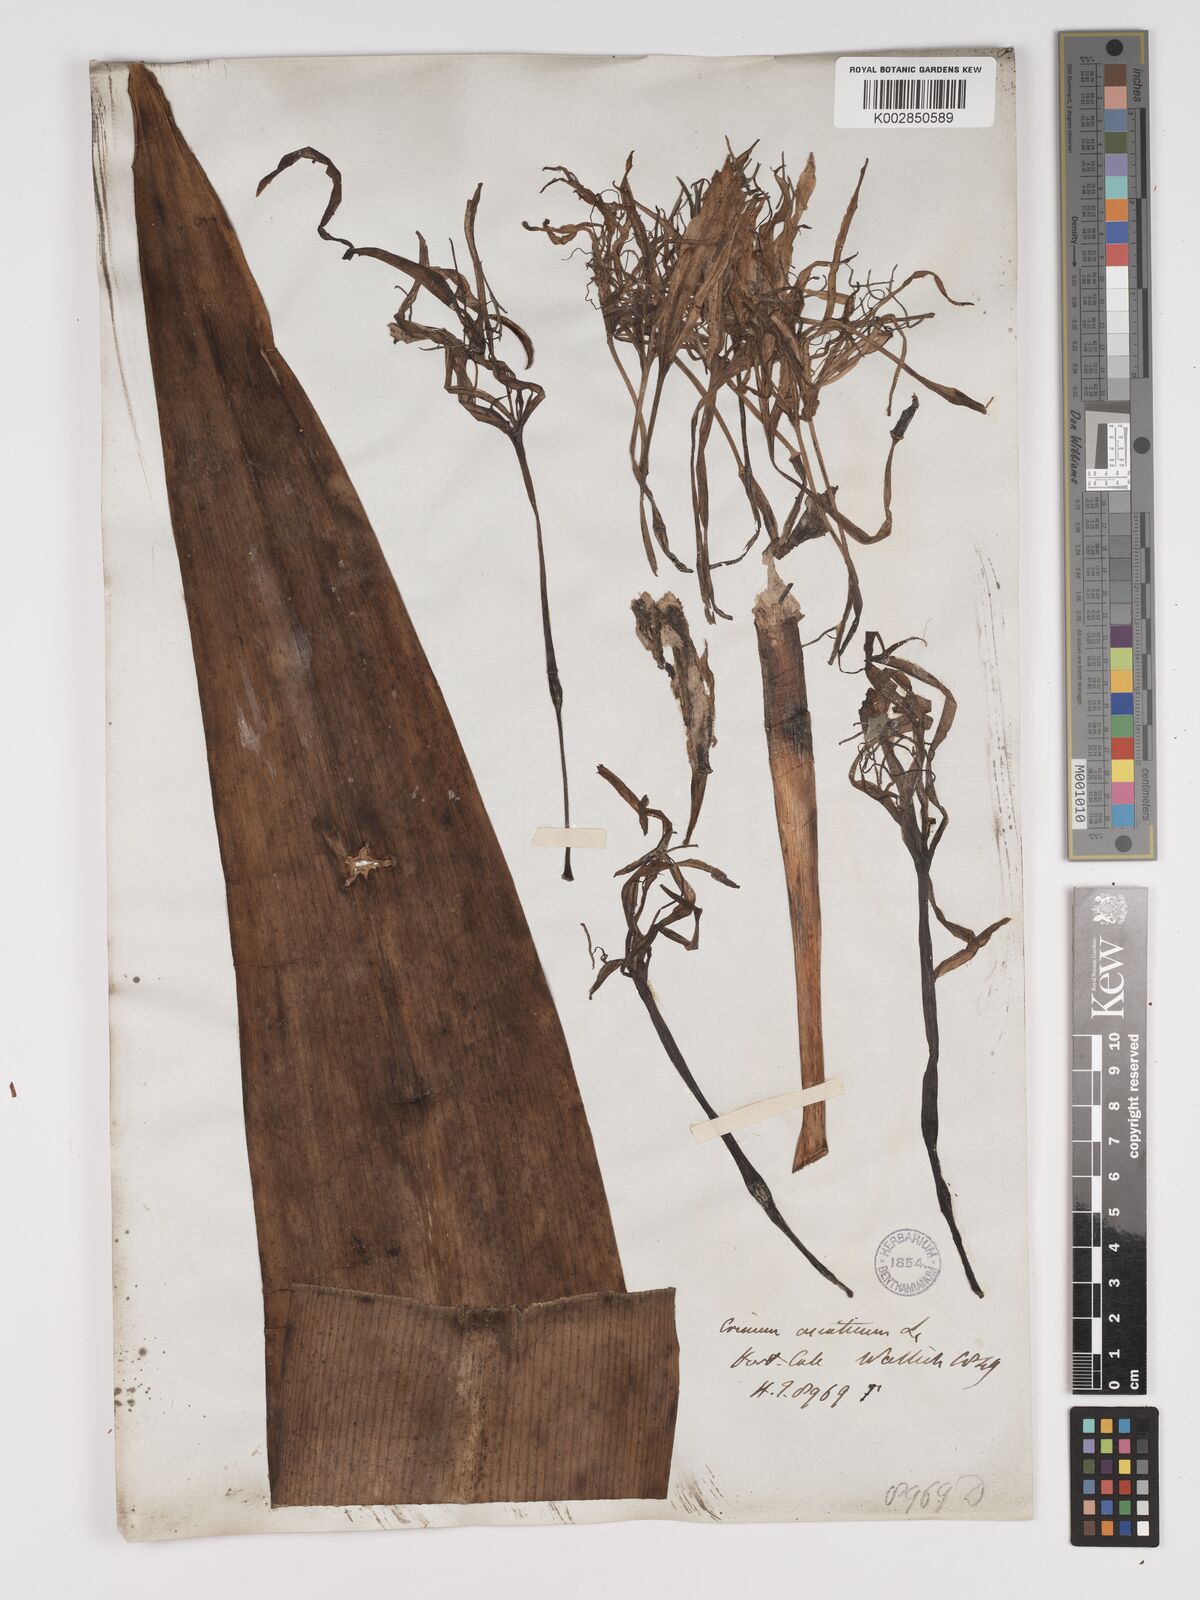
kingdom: Plantae
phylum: Tracheophyta
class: Liliopsida
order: Asparagales
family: Amaryllidaceae
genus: Crinum
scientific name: Crinum asiaticum
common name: Poisonbulb
